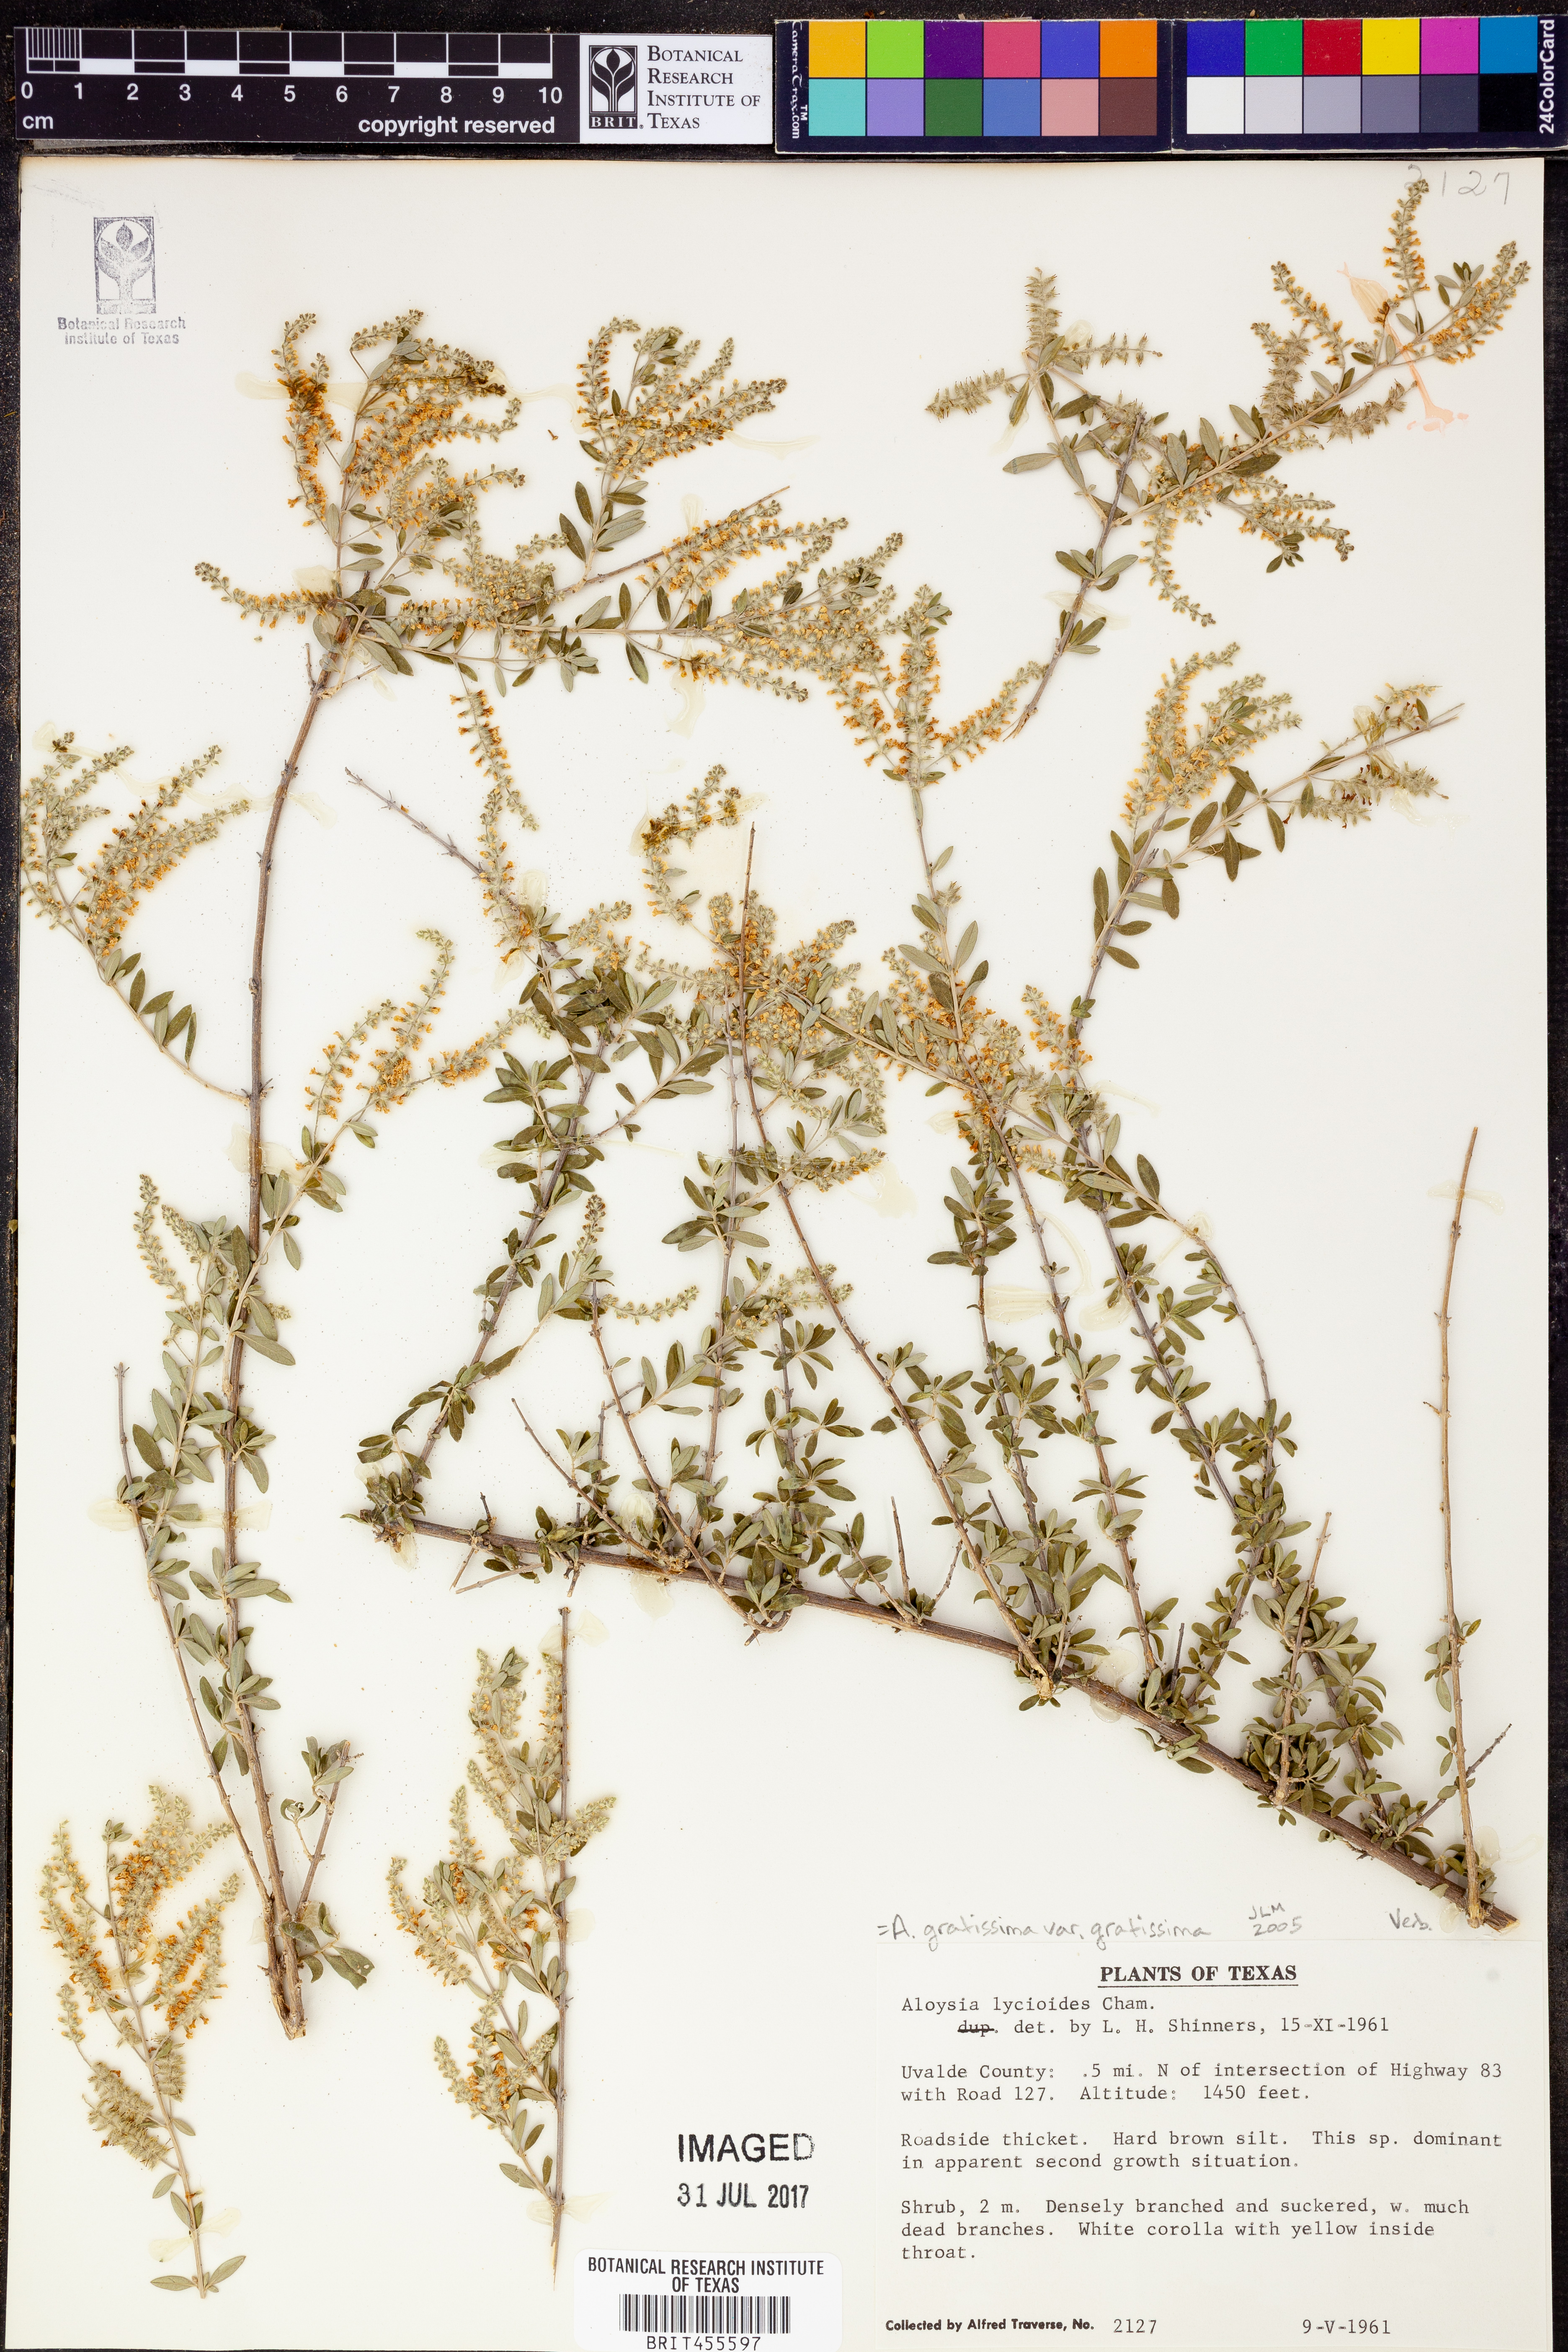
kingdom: Plantae
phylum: Tracheophyta
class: Magnoliopsida
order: Lamiales
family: Verbenaceae
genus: Aloysia
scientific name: Aloysia gratissima
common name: Common bee-brush
